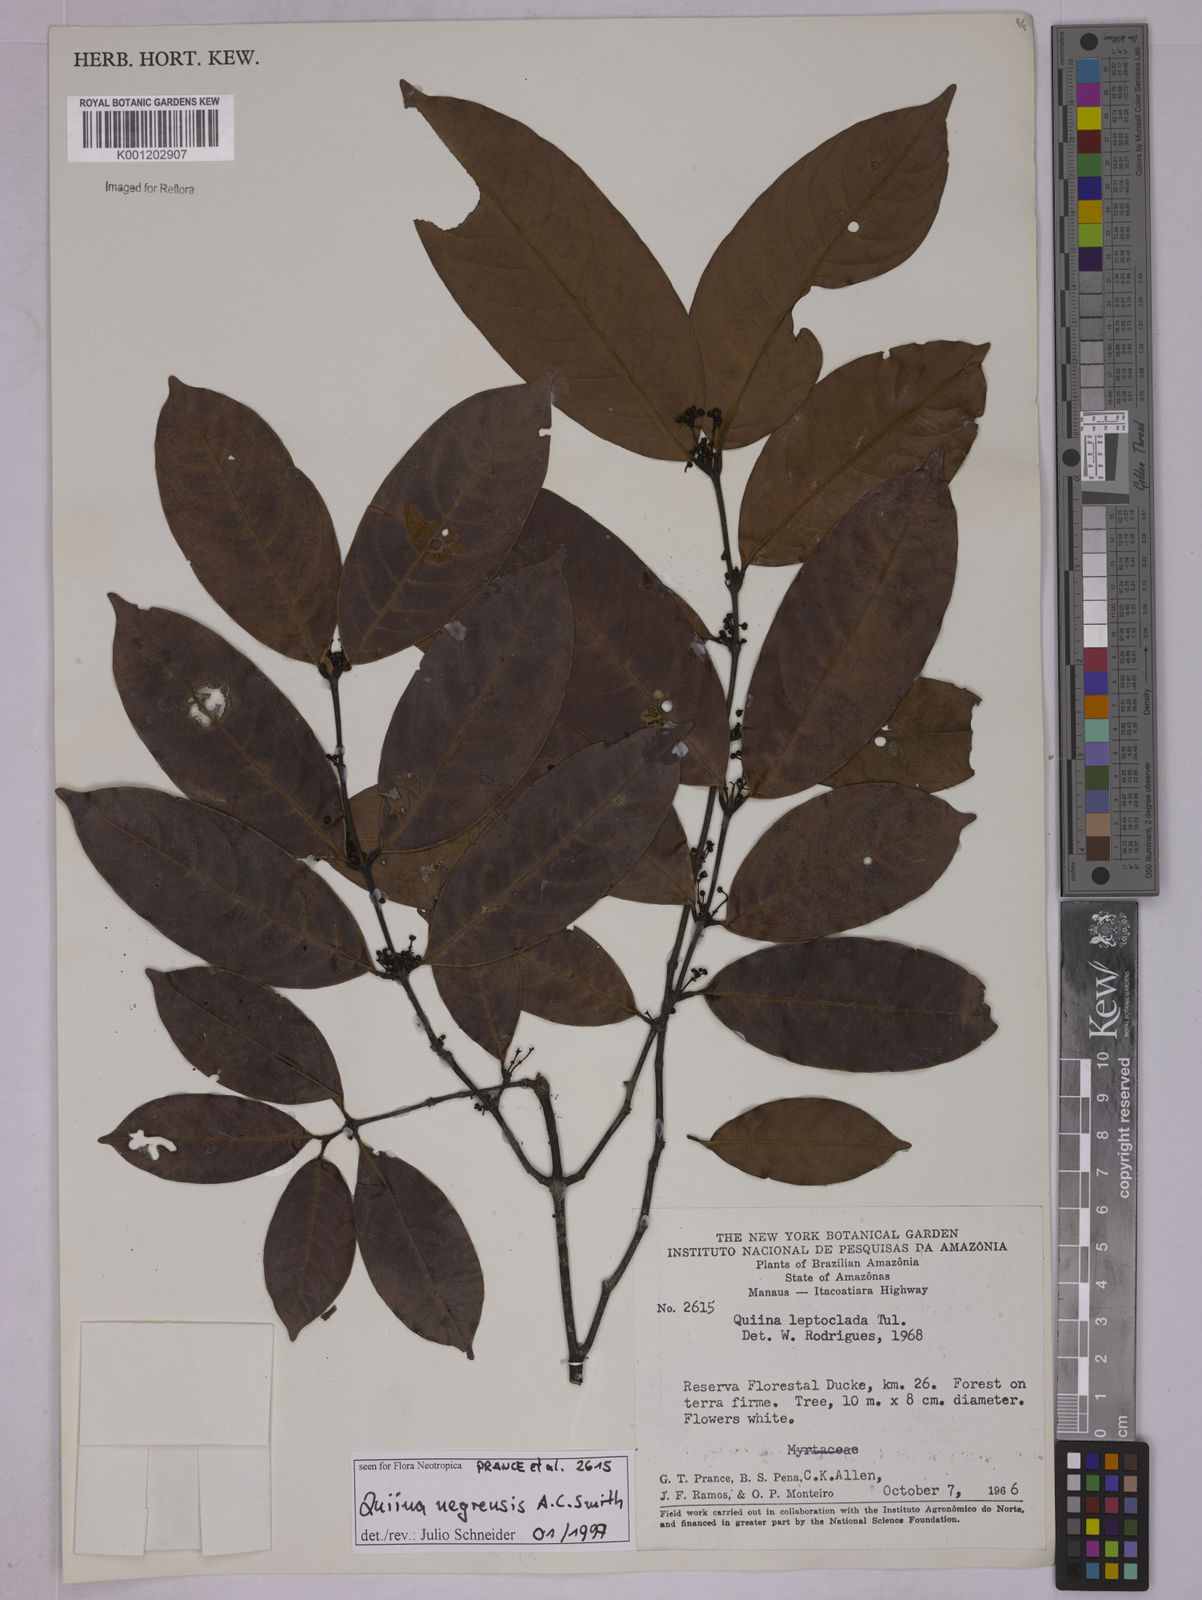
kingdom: Plantae
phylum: Tracheophyta
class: Magnoliopsida
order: Malpighiales
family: Quiinaceae
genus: Quiina
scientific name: Quiina leptoclada
